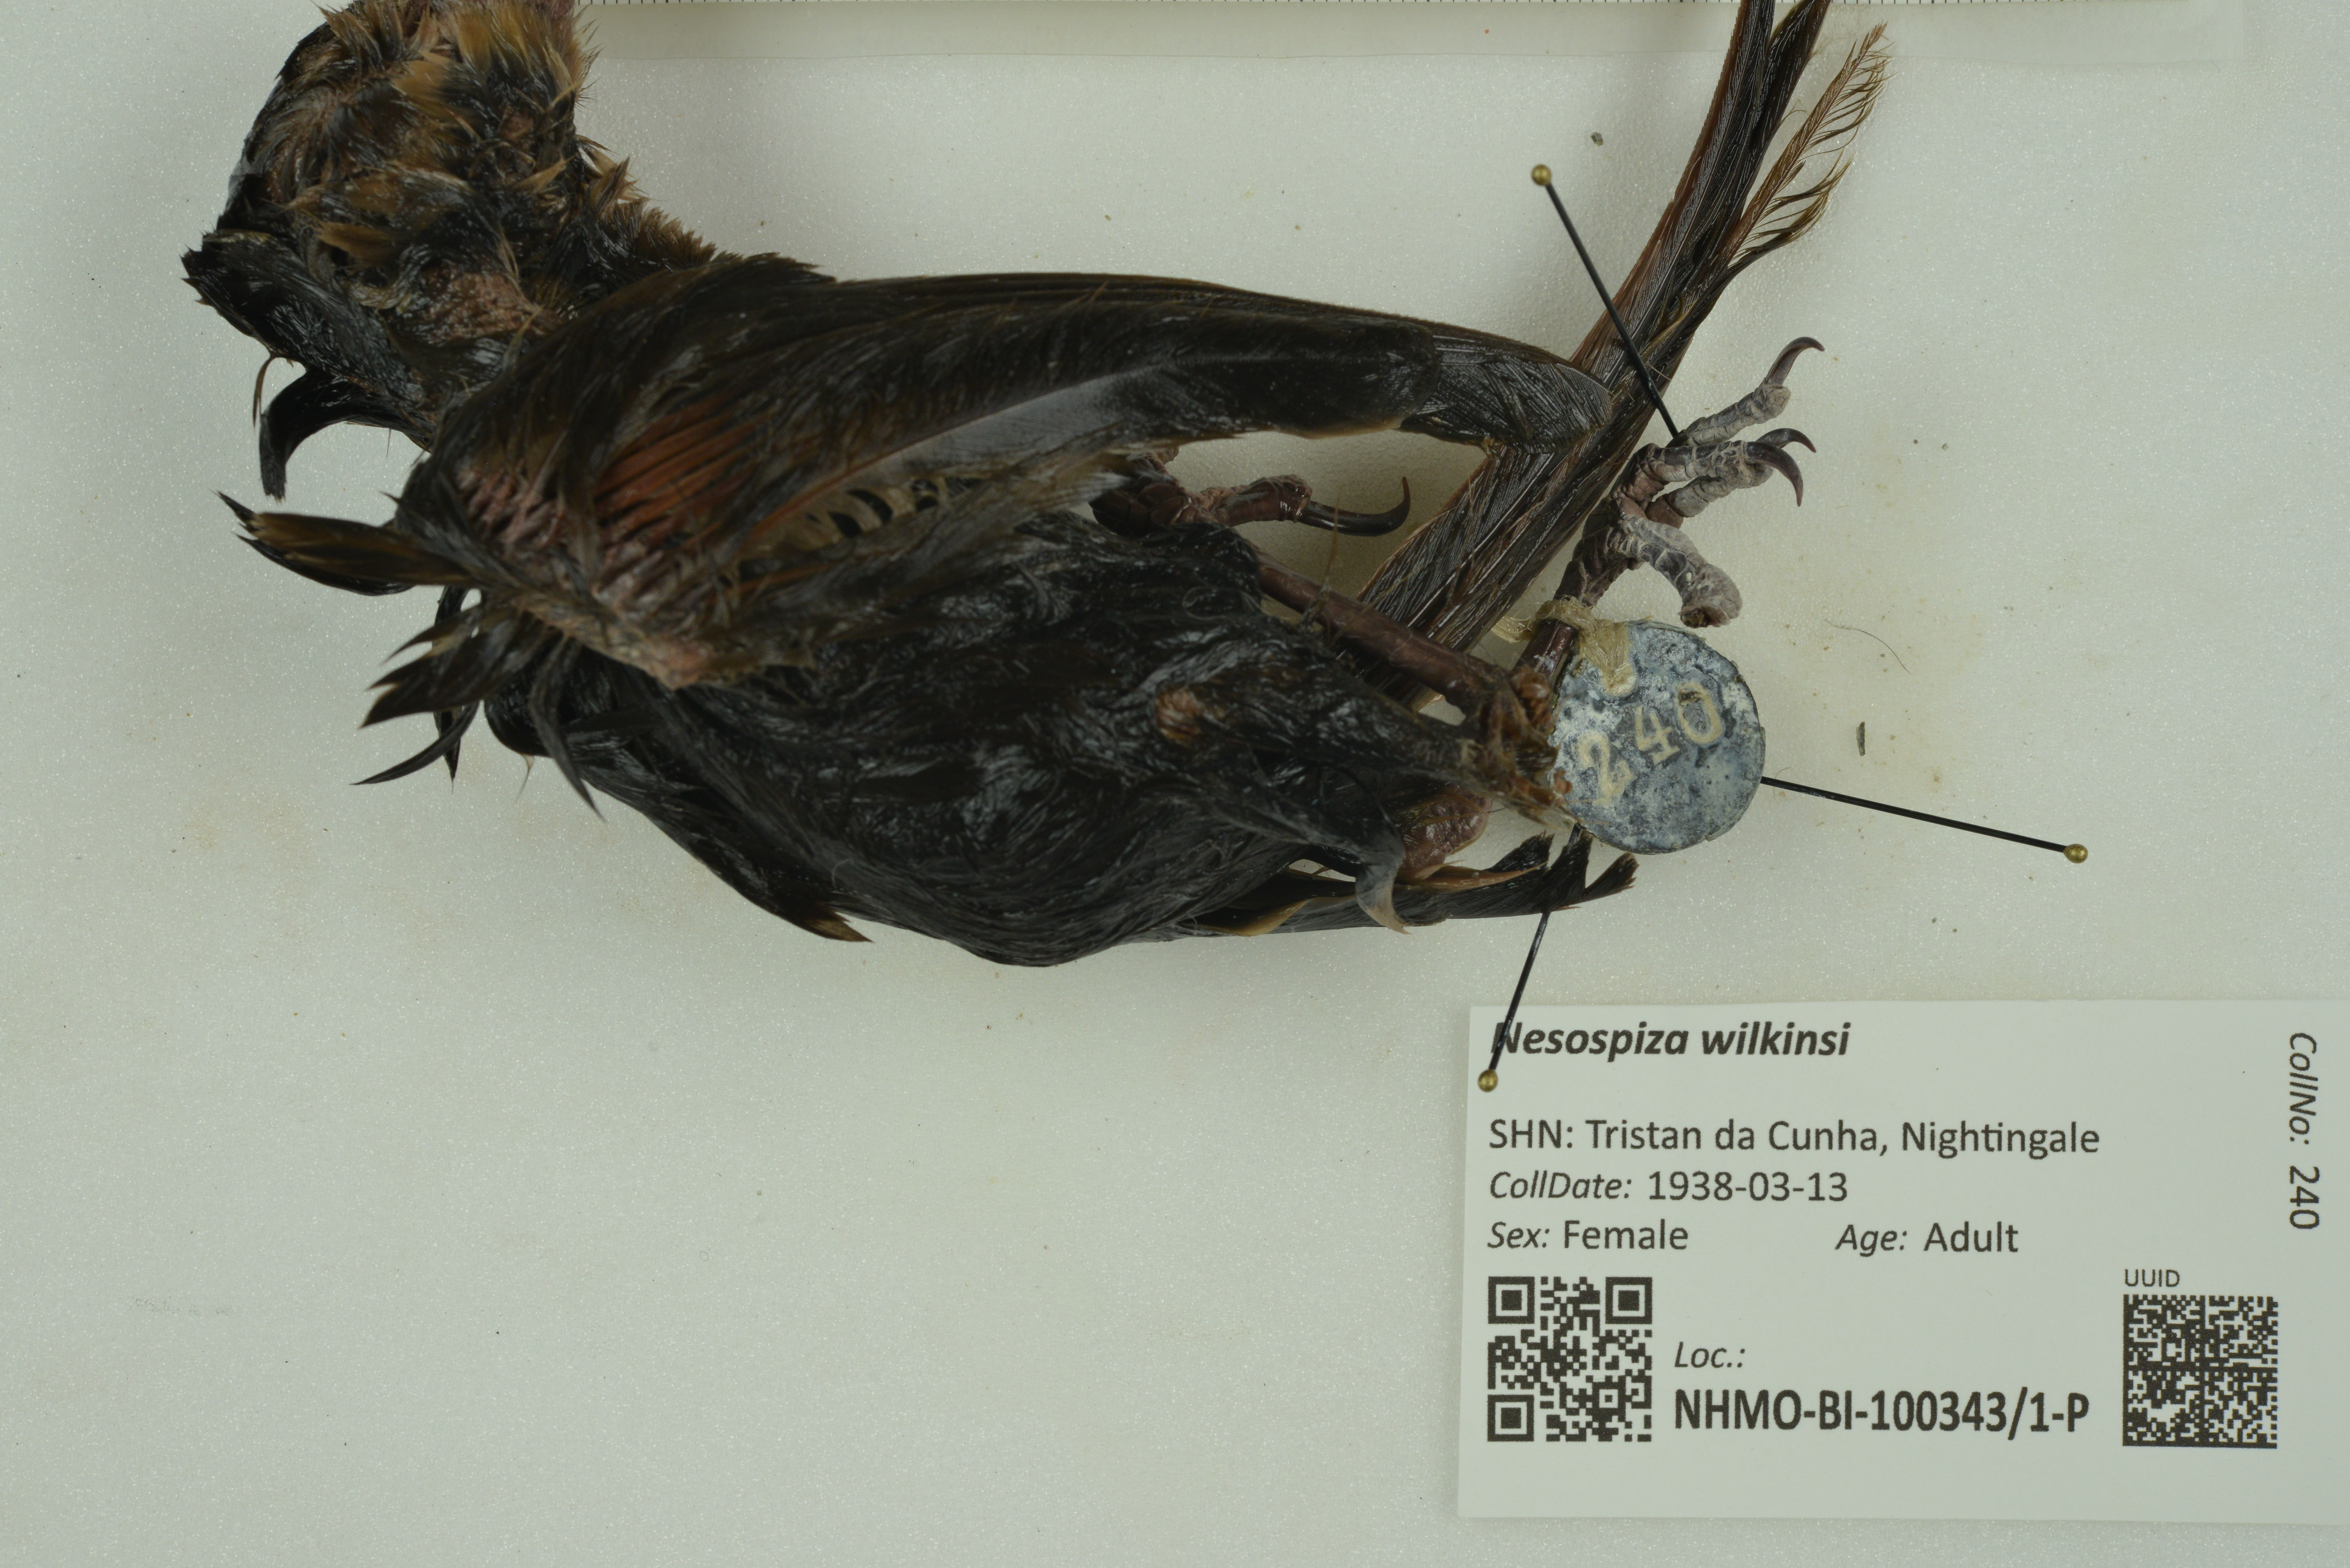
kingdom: Animalia
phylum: Chordata
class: Aves
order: Passeriformes
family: Thraupidae
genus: Nesospiza
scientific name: Nesospiza wilkinsi
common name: Wilkins's finch
